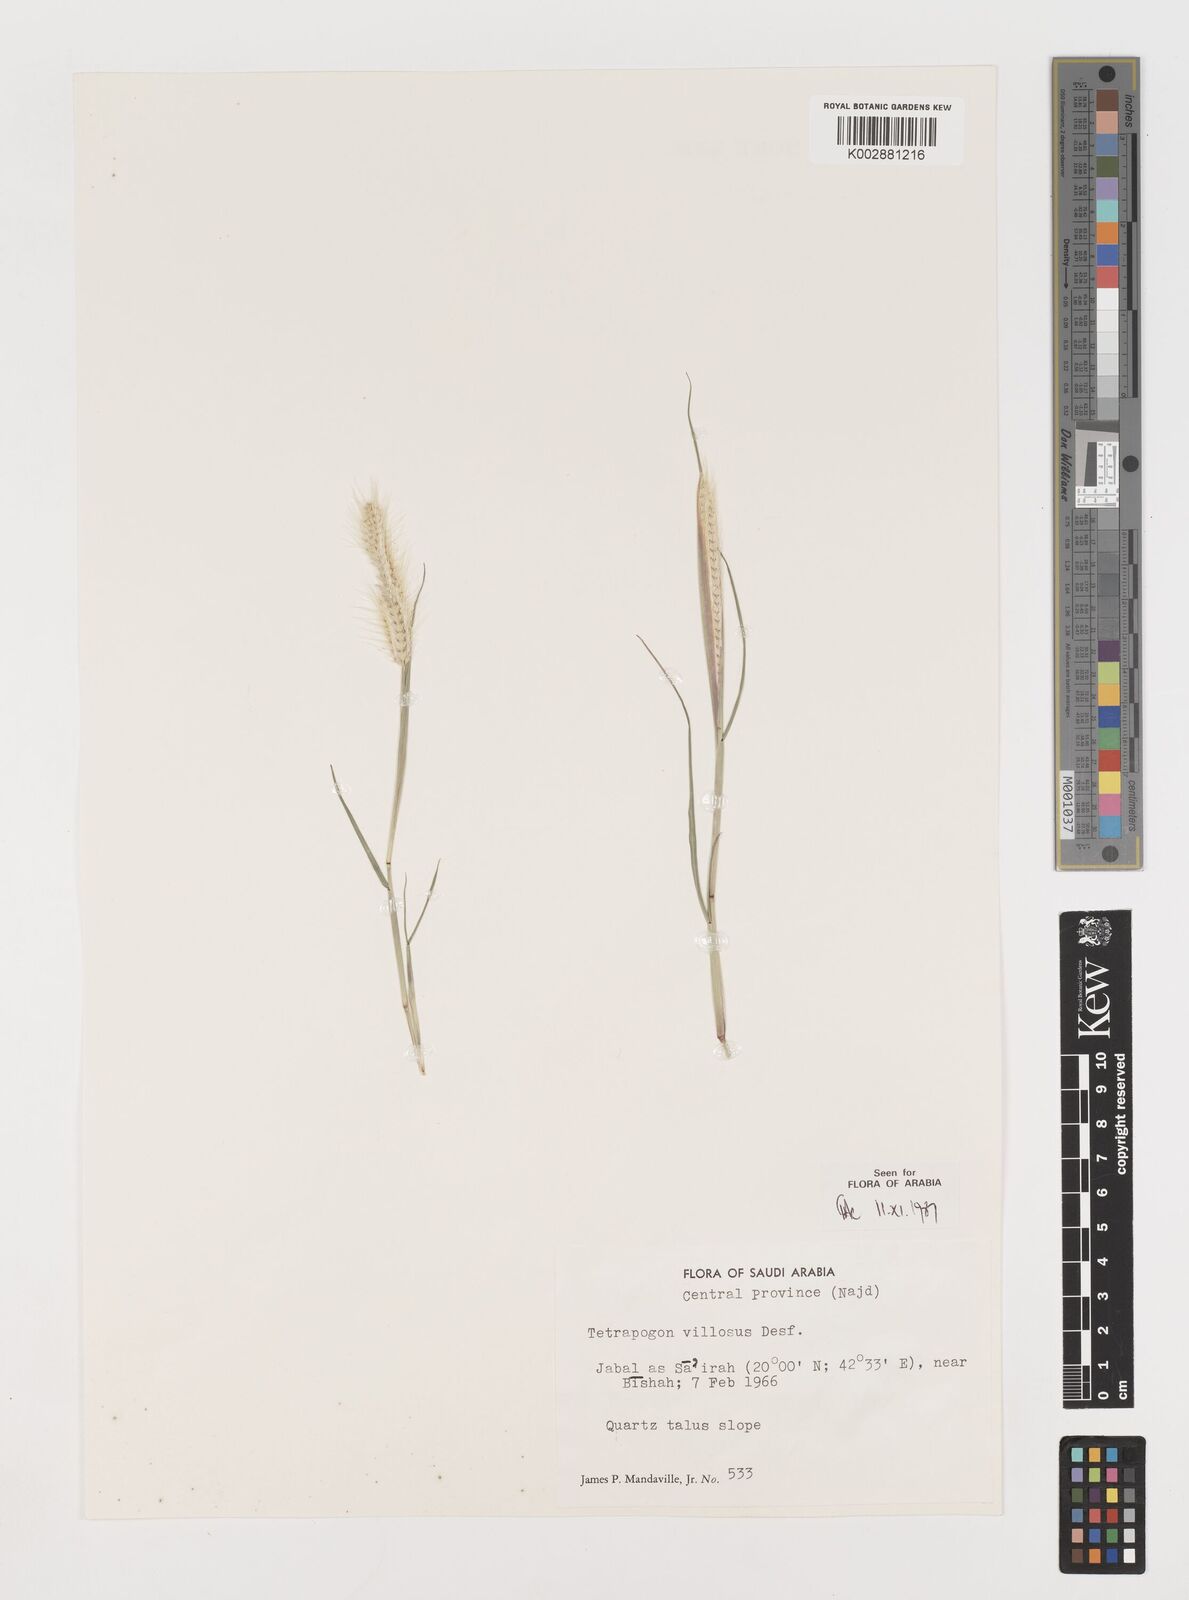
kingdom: Plantae
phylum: Tracheophyta
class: Liliopsida
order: Poales
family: Poaceae
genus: Tetrapogon
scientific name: Tetrapogon villosus
